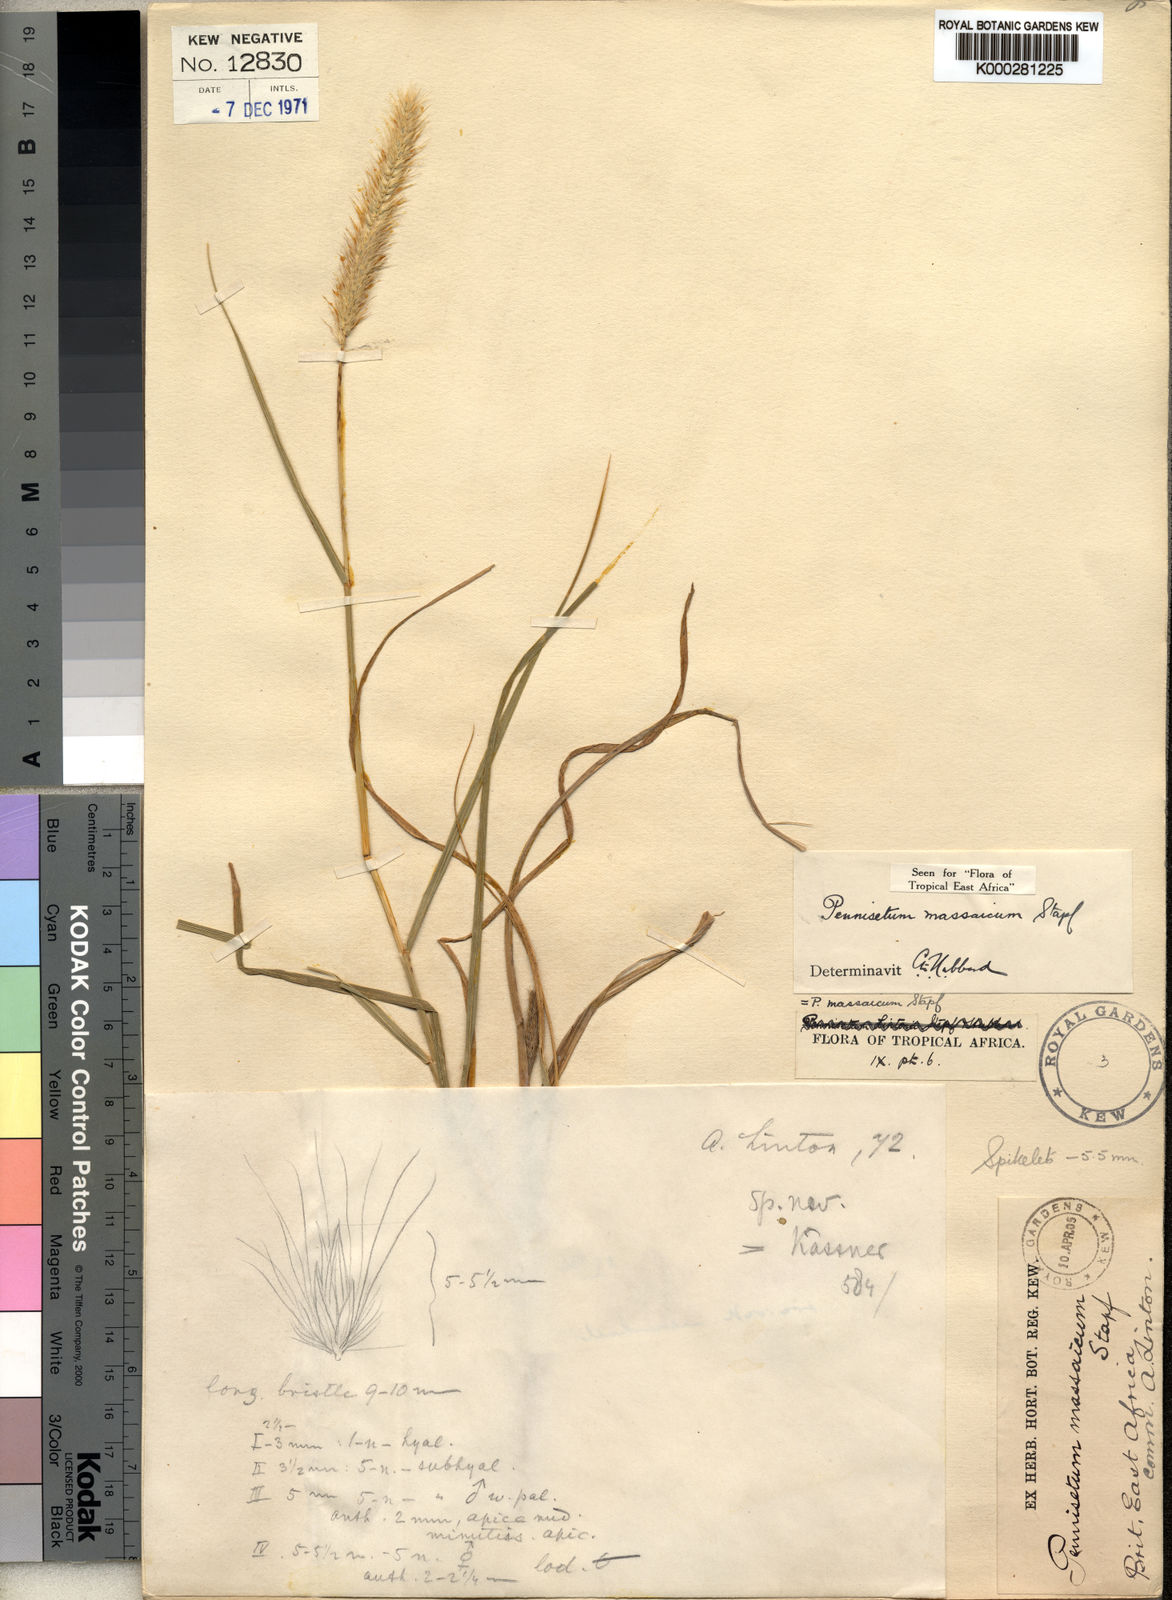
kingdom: Plantae
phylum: Tracheophyta
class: Liliopsida
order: Poales
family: Poaceae
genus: Cenchrus
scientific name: Cenchrus massaicus
